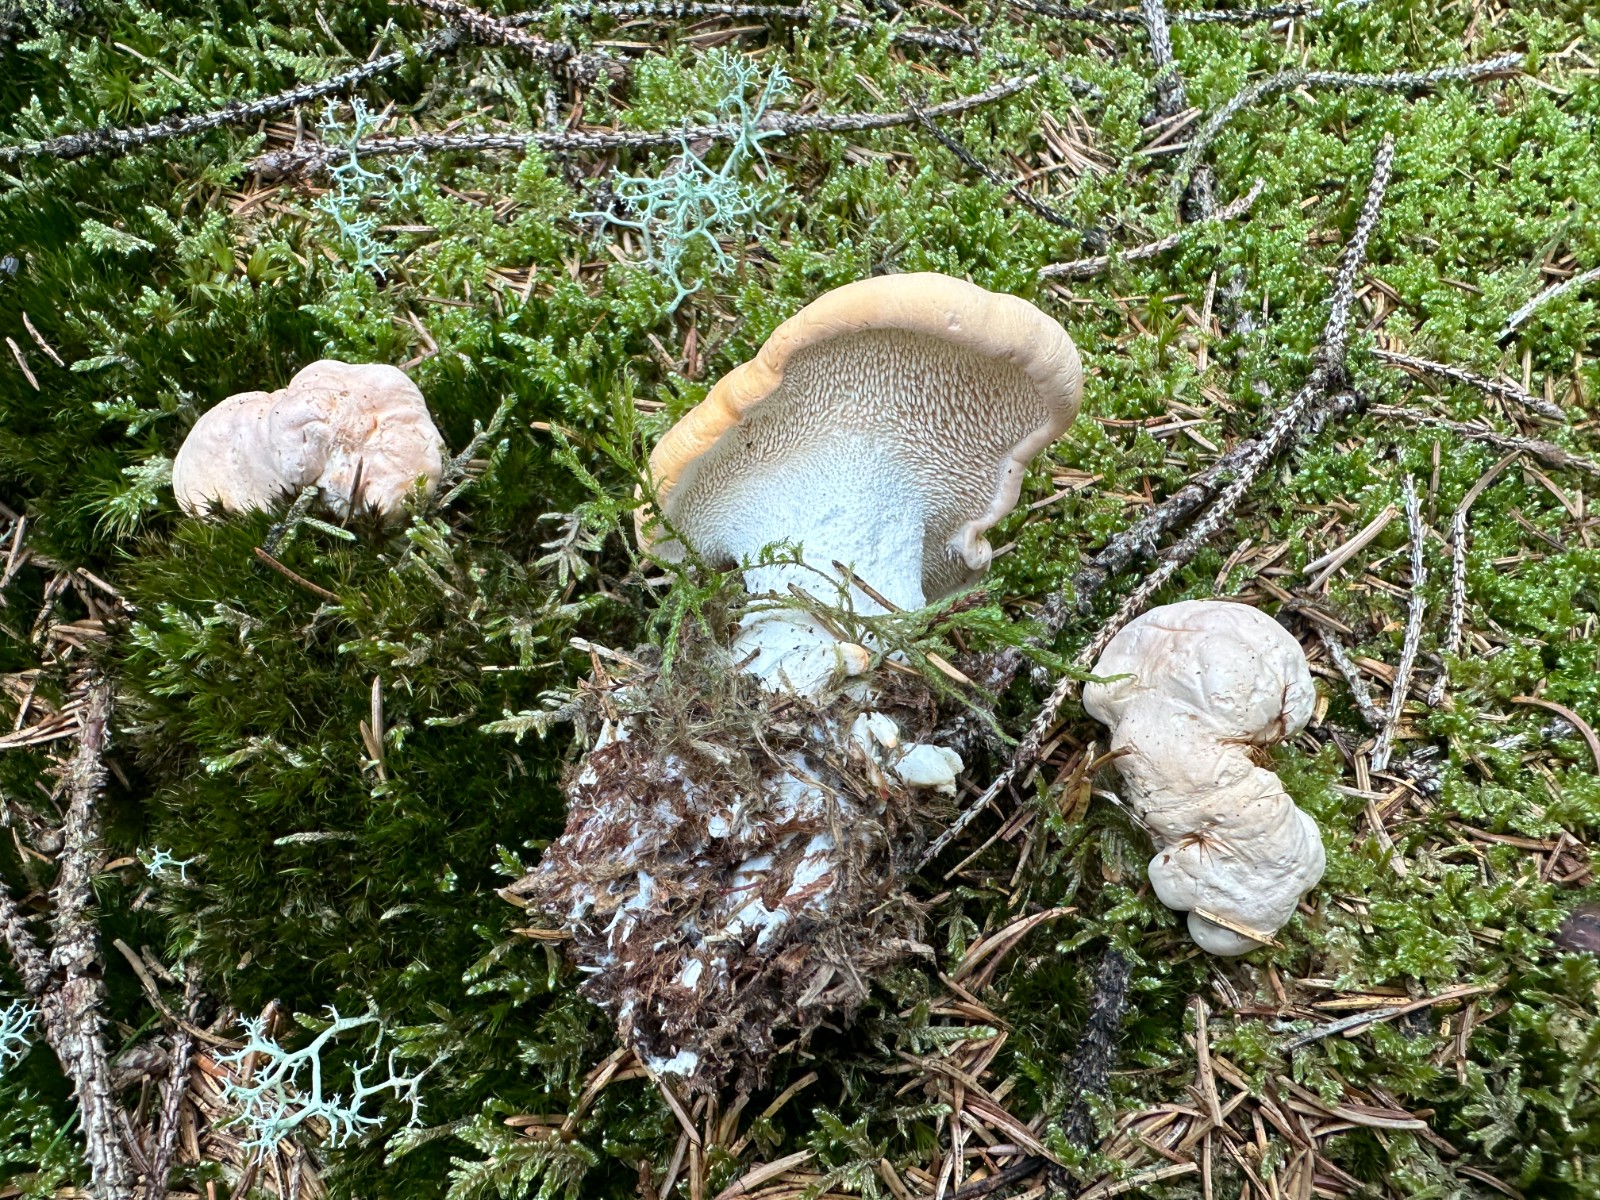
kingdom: Fungi
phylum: Basidiomycota
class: Agaricomycetes
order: Cantharellales
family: Hydnaceae
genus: Hydnum
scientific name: Hydnum repandum
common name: almindelig pigsvamp
